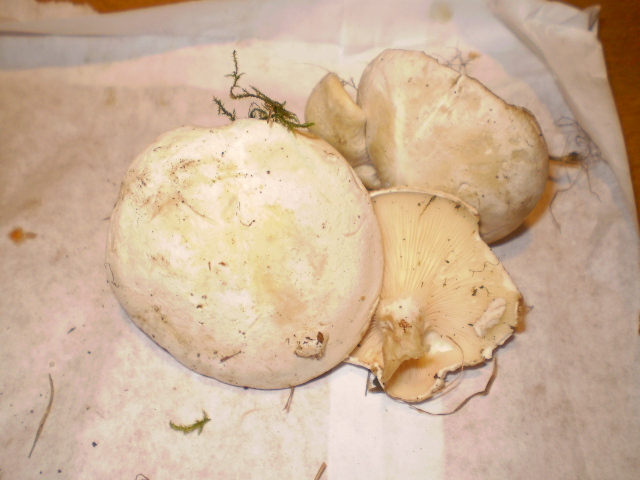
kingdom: Fungi
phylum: Basidiomycota
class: Agaricomycetes
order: Agaricales
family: Entolomataceae
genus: Clitopilus
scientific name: Clitopilus prunulus
